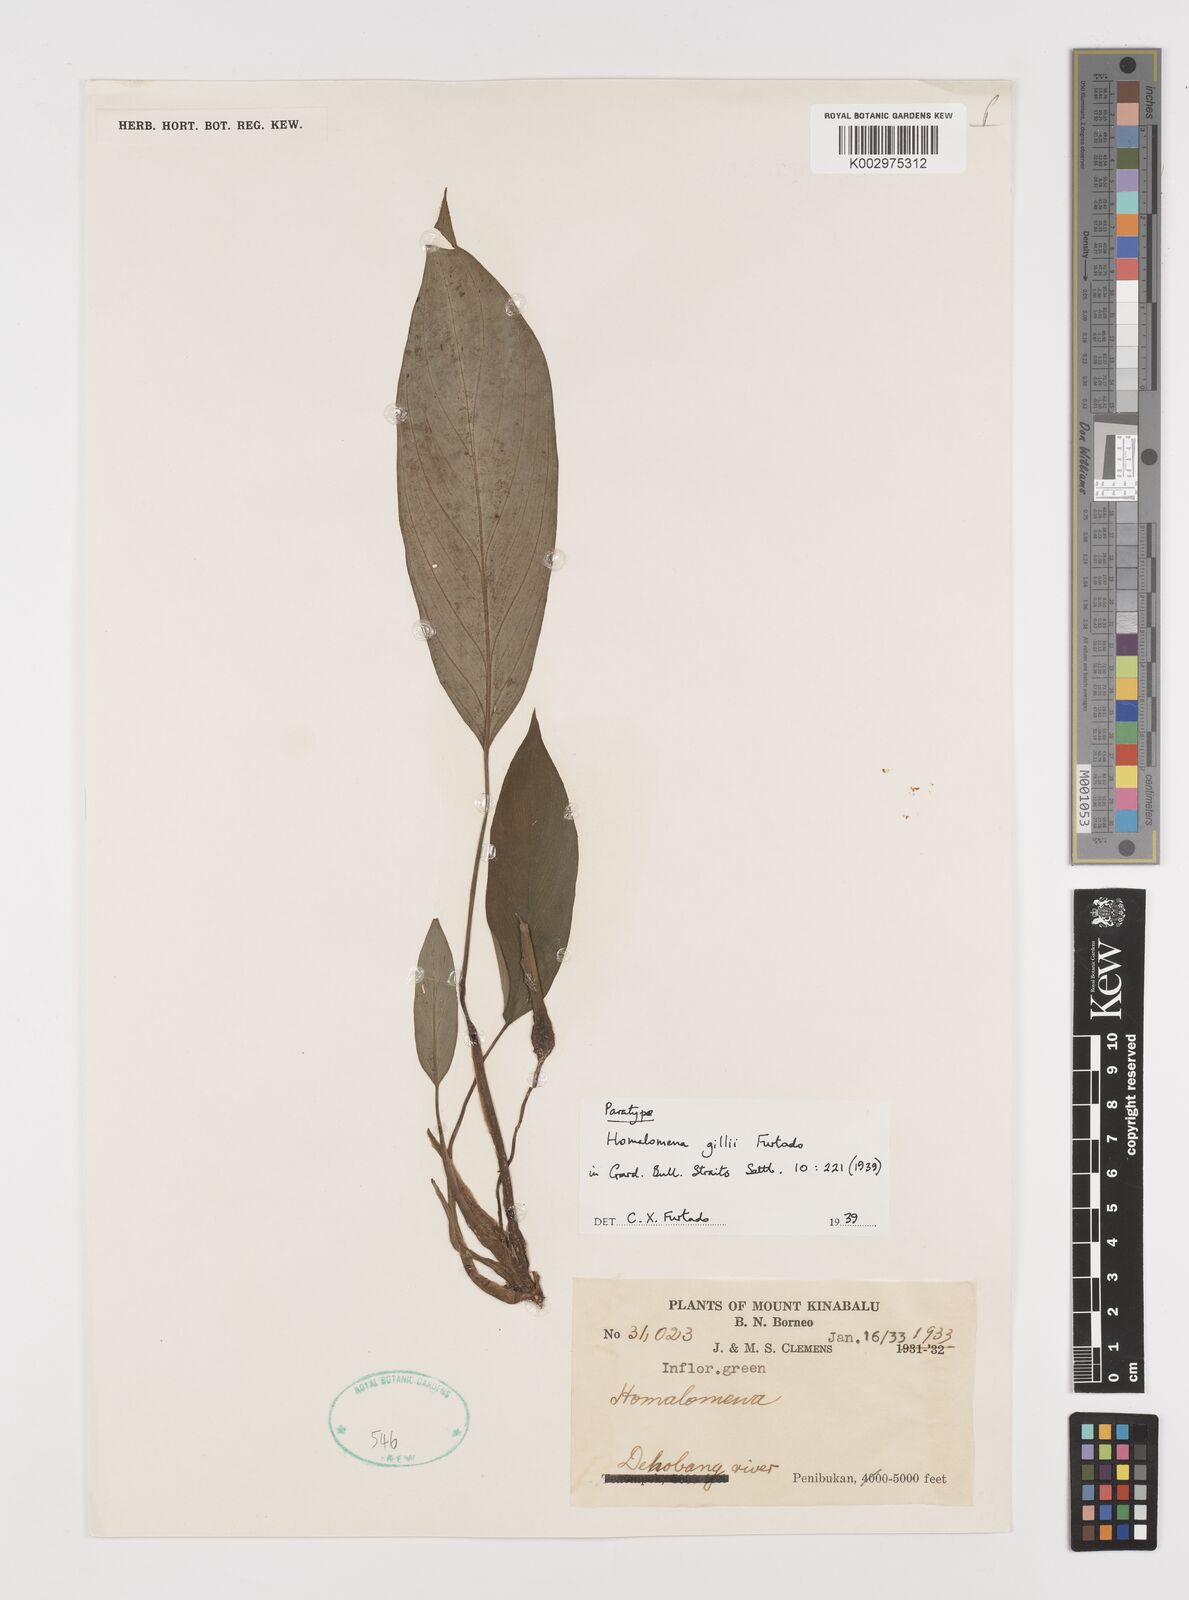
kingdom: Plantae
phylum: Tracheophyta
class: Liliopsida
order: Alismatales
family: Araceae
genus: Homalomena
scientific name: Homalomena gillii
